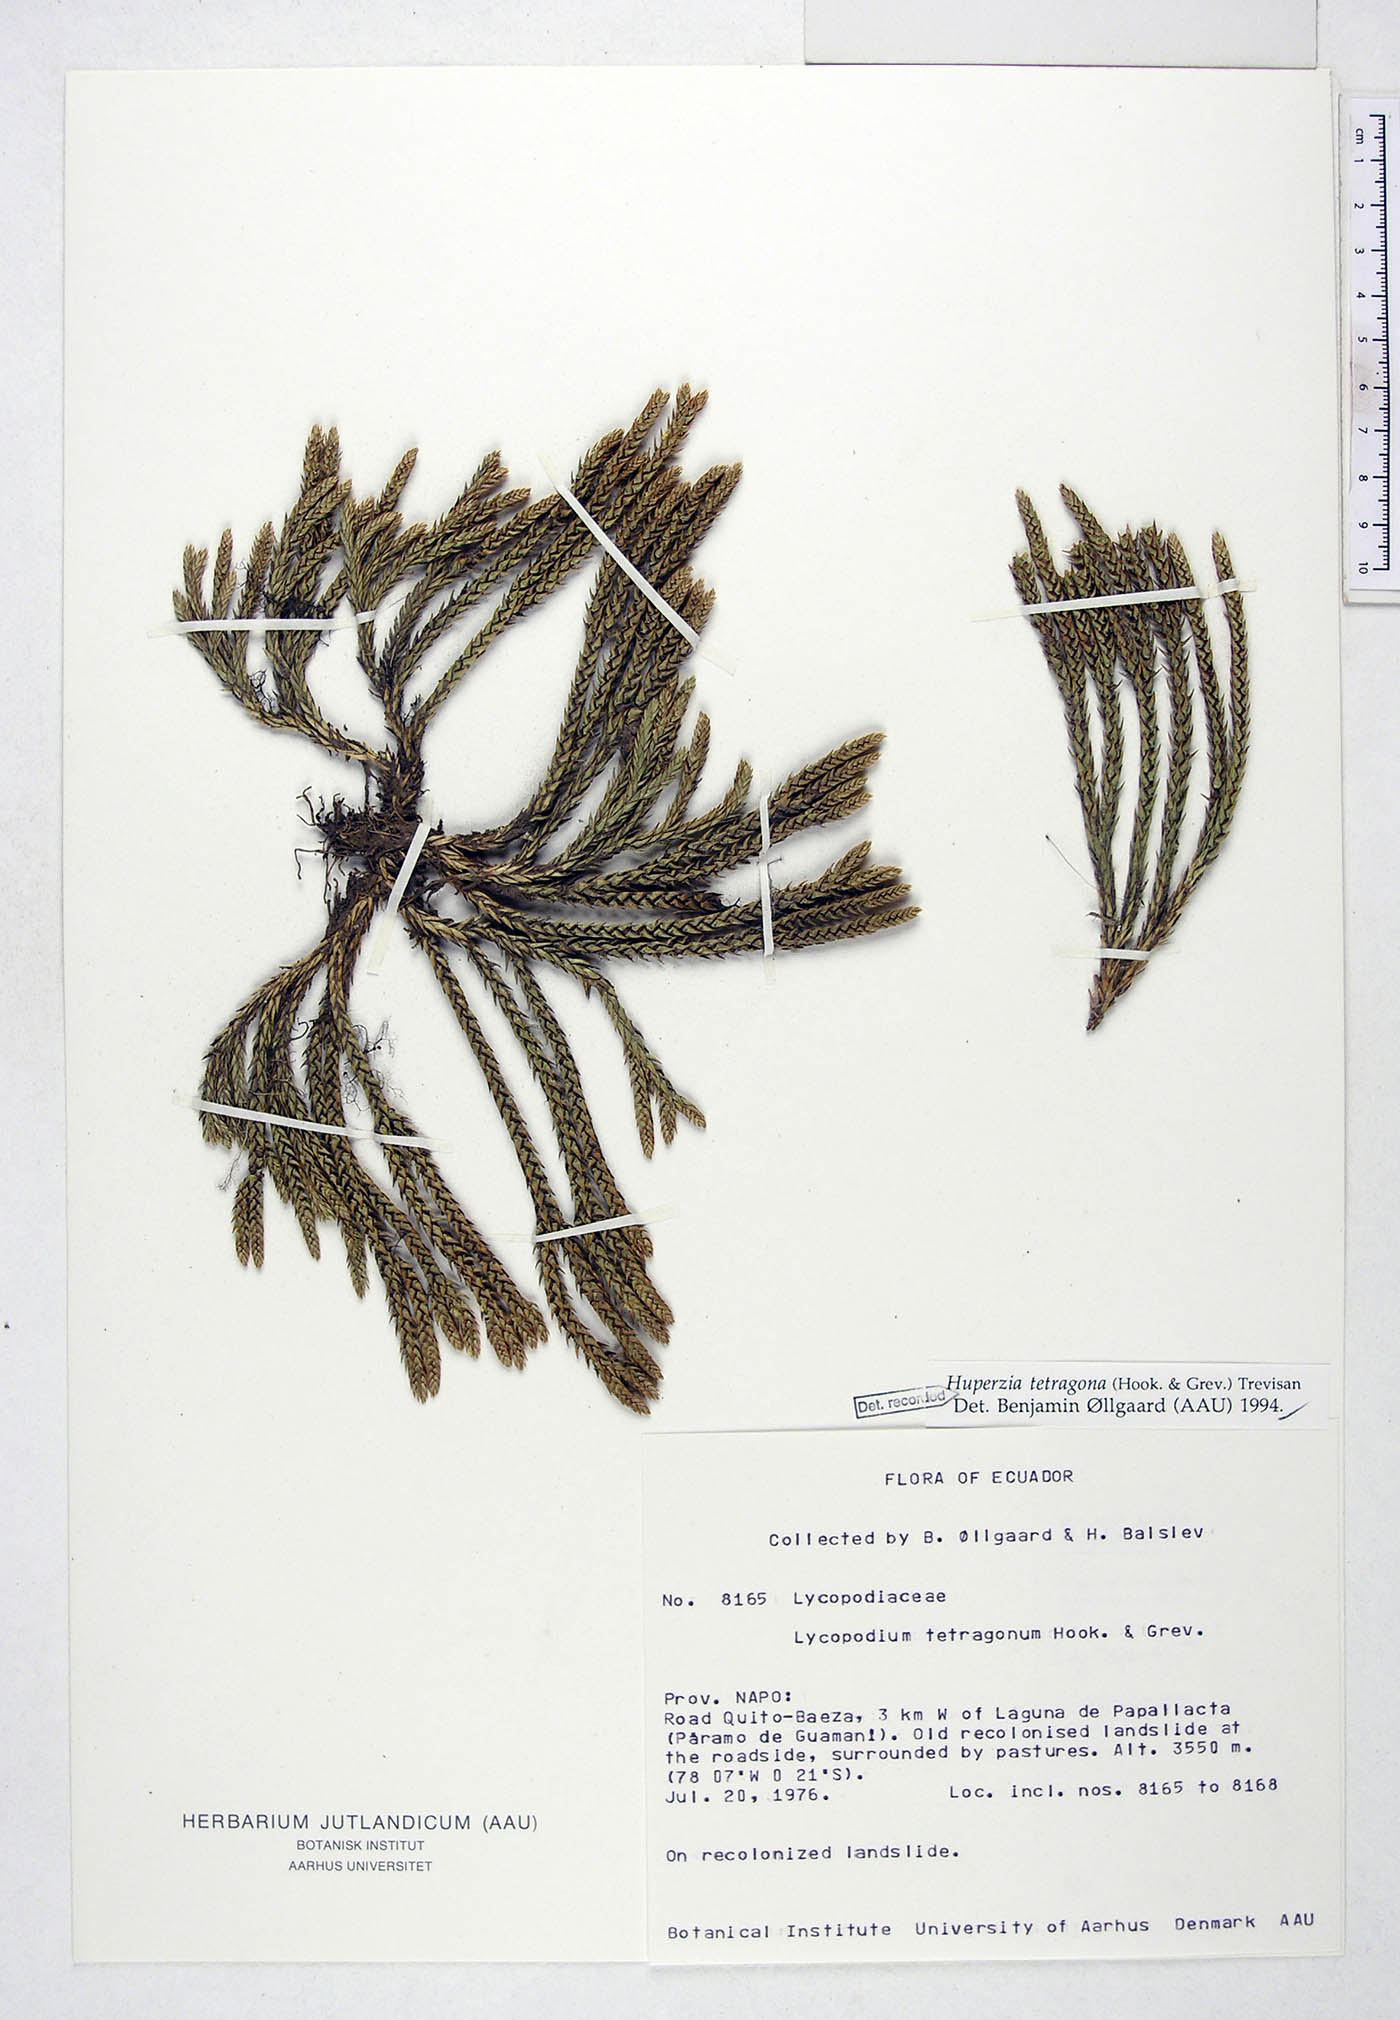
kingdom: Plantae
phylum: Tracheophyta
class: Lycopodiopsida
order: Lycopodiales
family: Lycopodiaceae
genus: Phlegmariurus
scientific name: Phlegmariurus tetragonus
